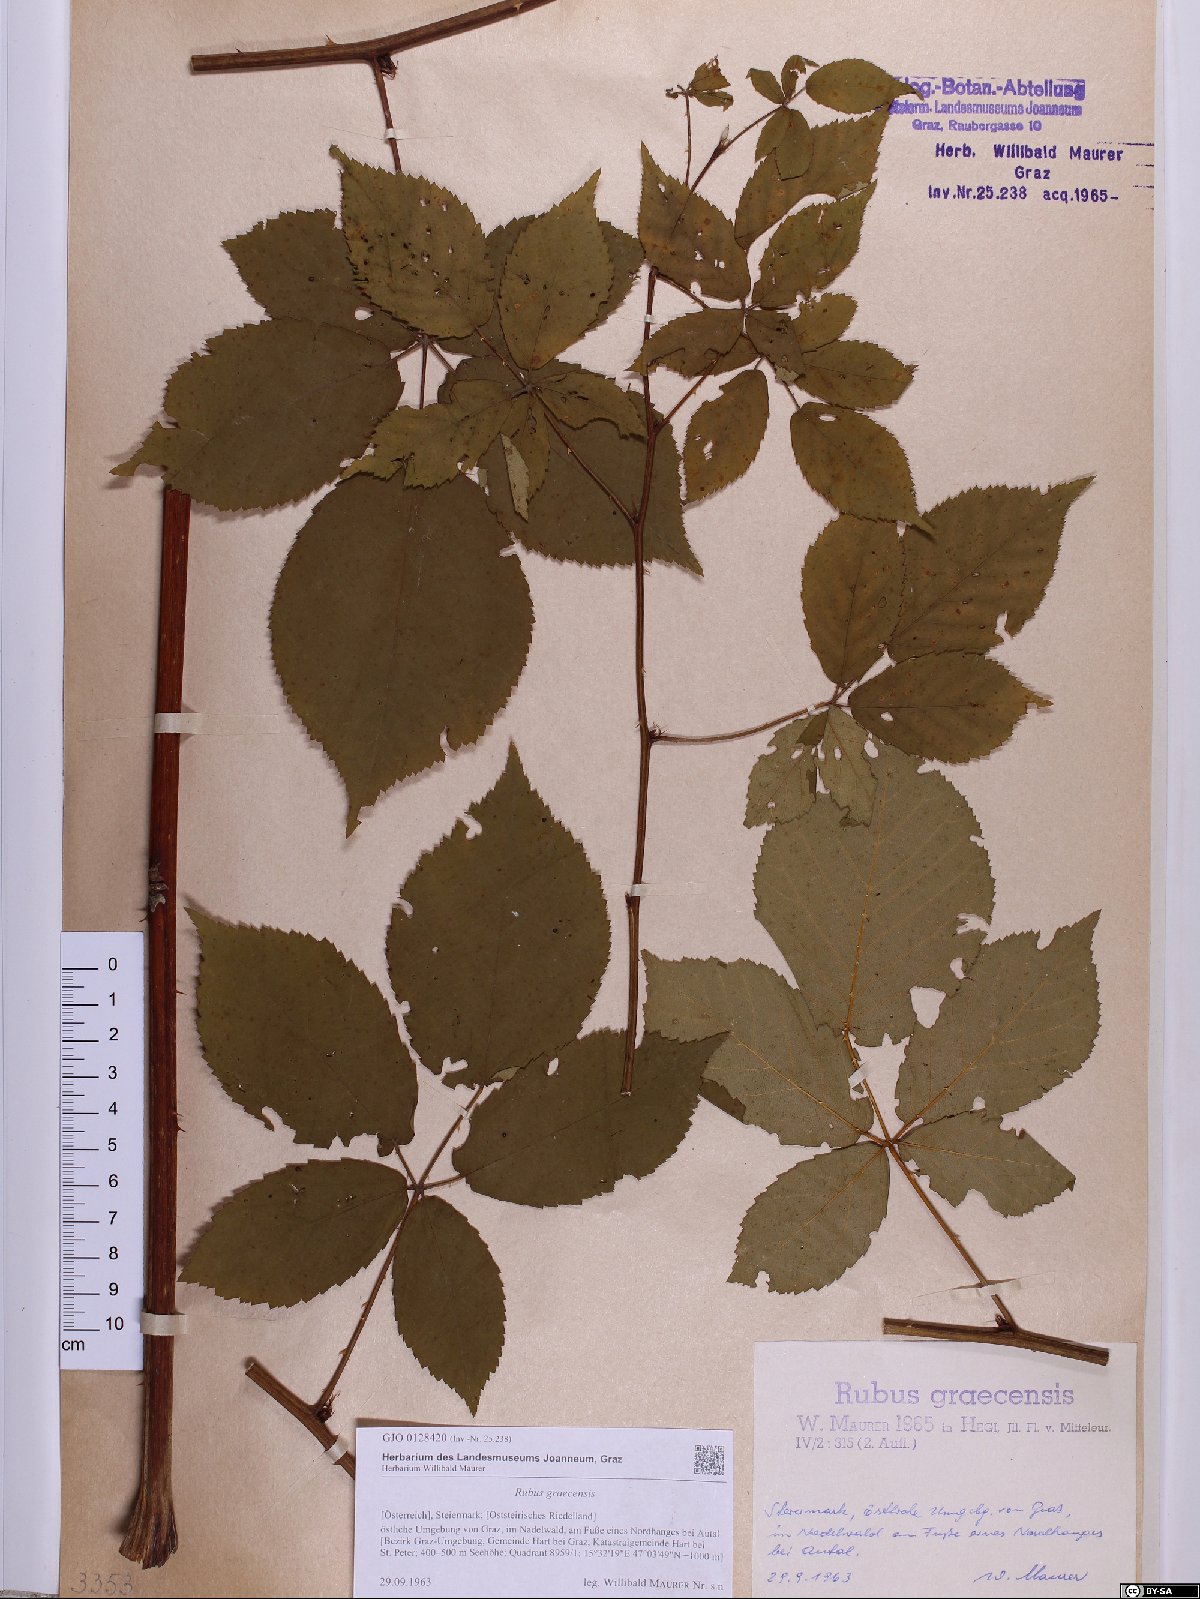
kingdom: Plantae
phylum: Tracheophyta
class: Magnoliopsida
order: Rosales
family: Rosaceae
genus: Rubus
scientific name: Rubus graecensis
